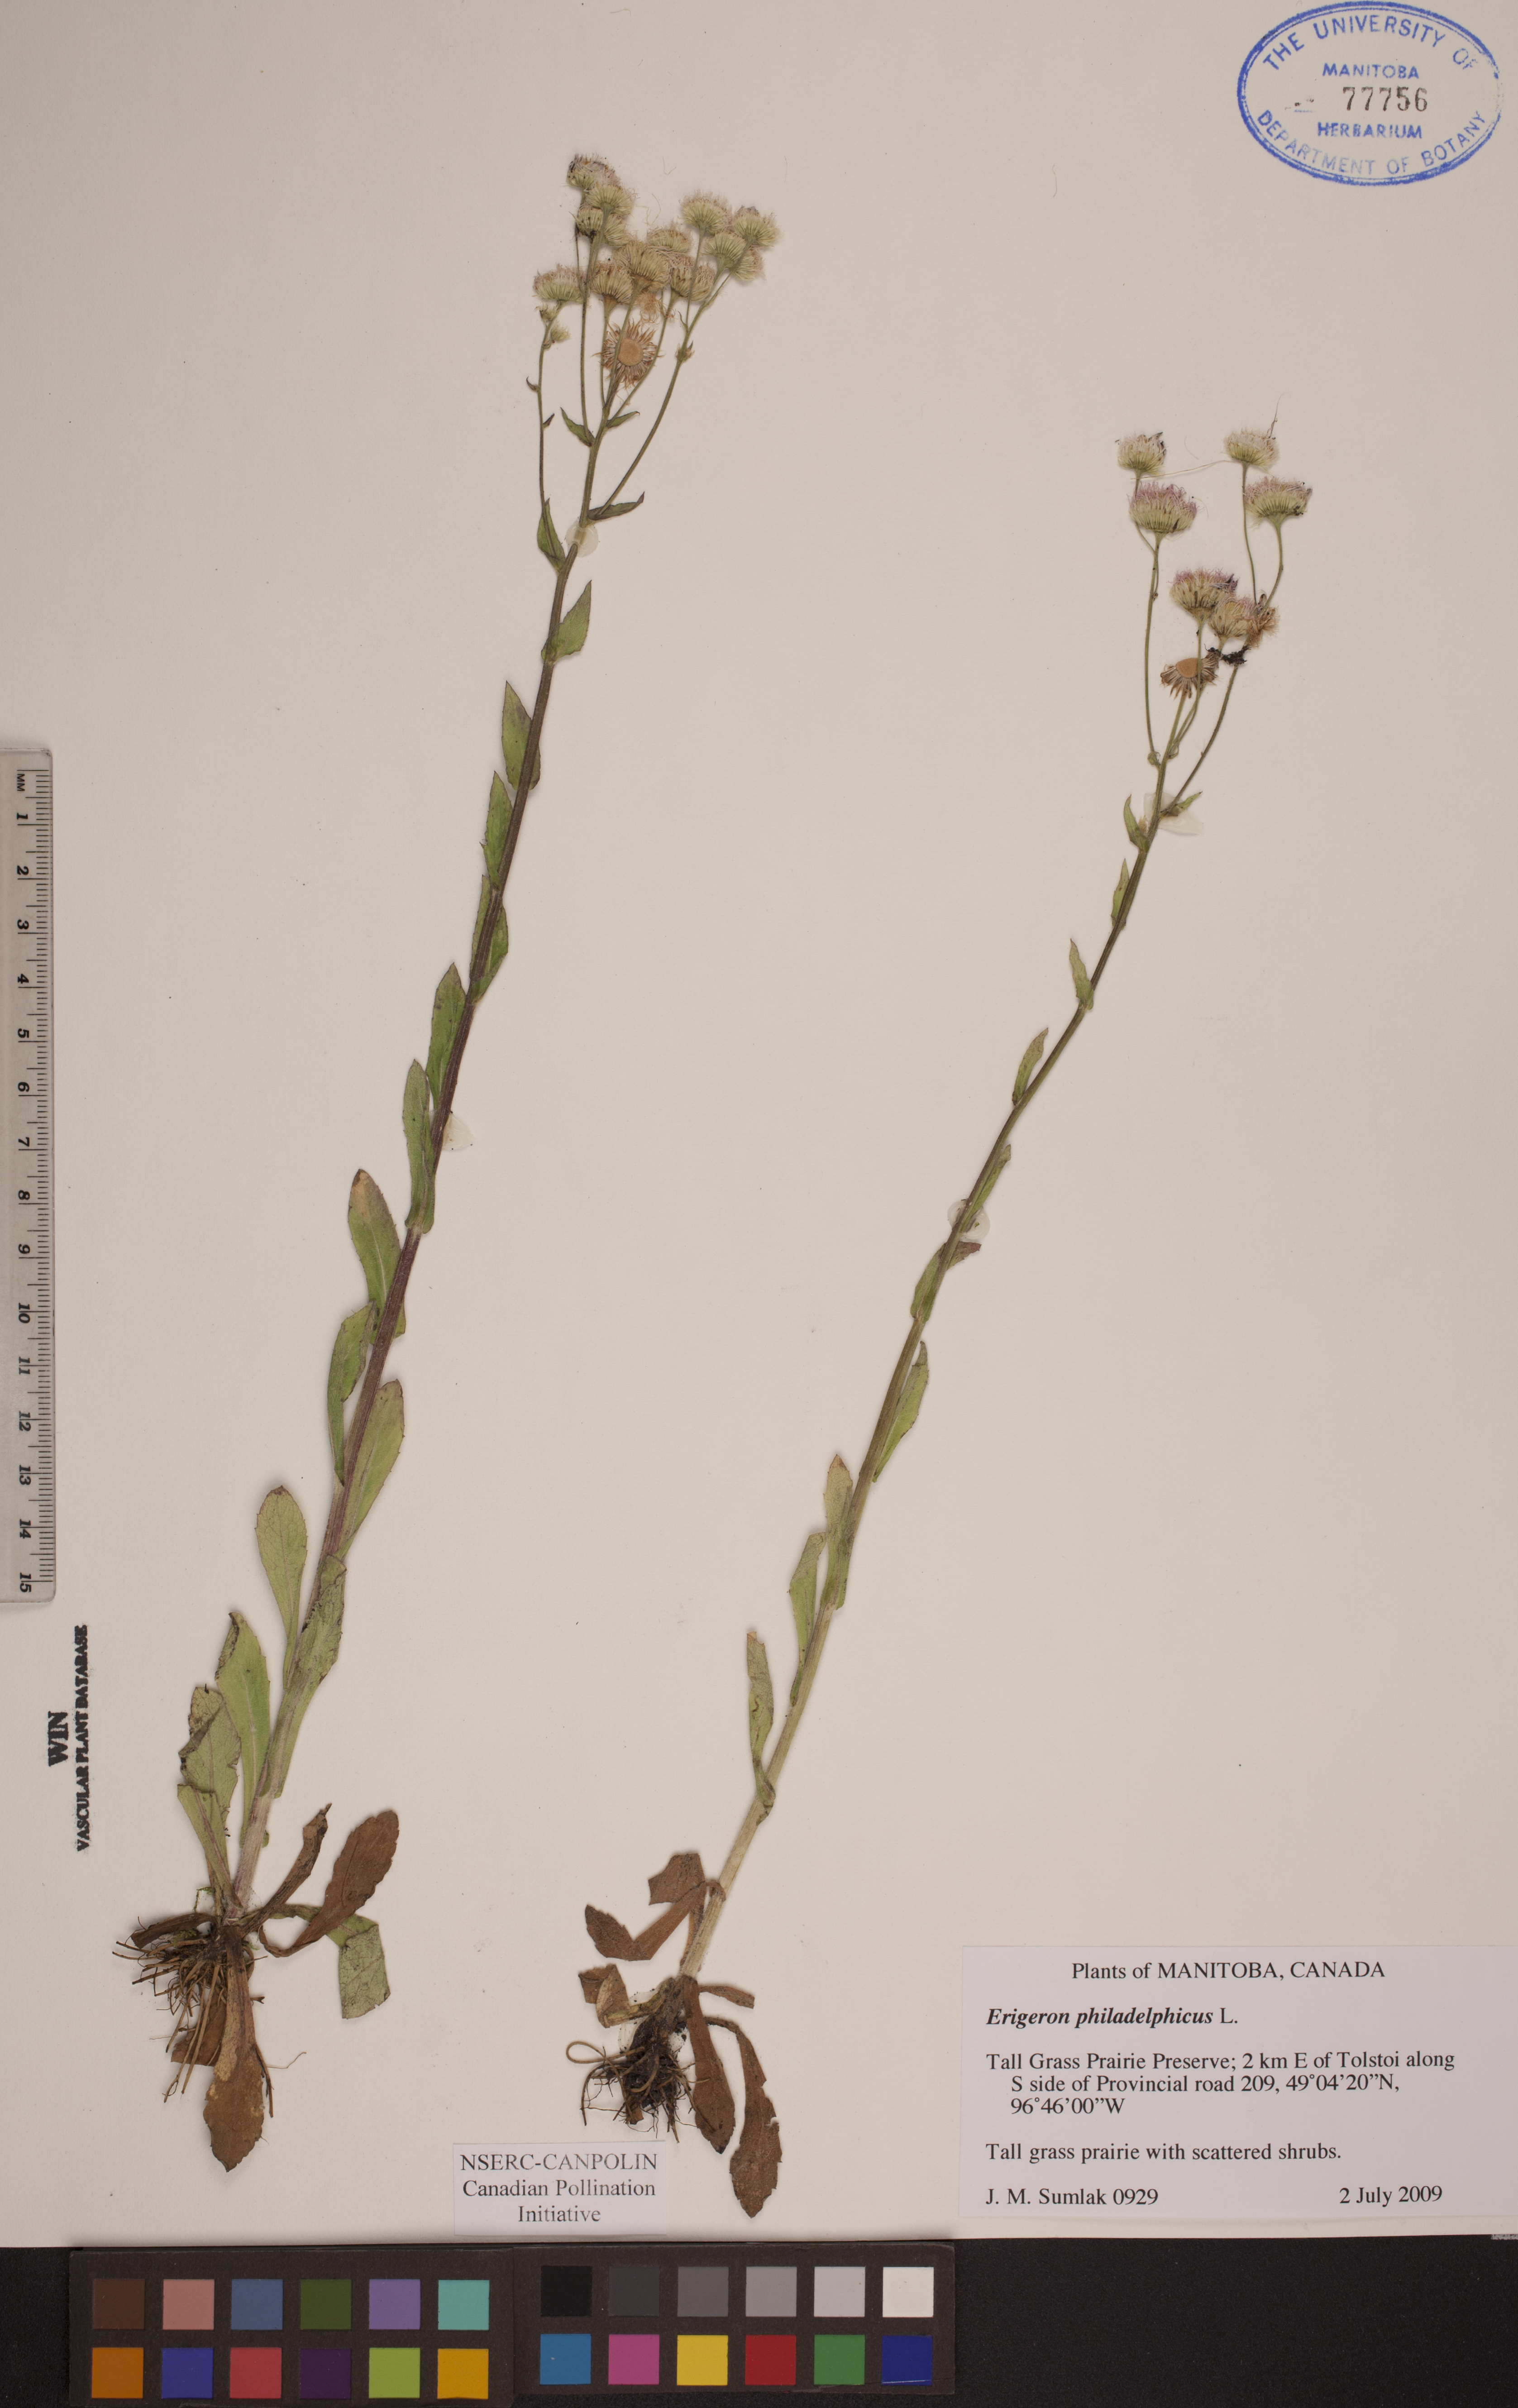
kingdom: Plantae
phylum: Tracheophyta
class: Magnoliopsida
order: Asterales
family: Asteraceae
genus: Erigeron
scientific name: Erigeron philadelphicus
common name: Robin's-plantain
